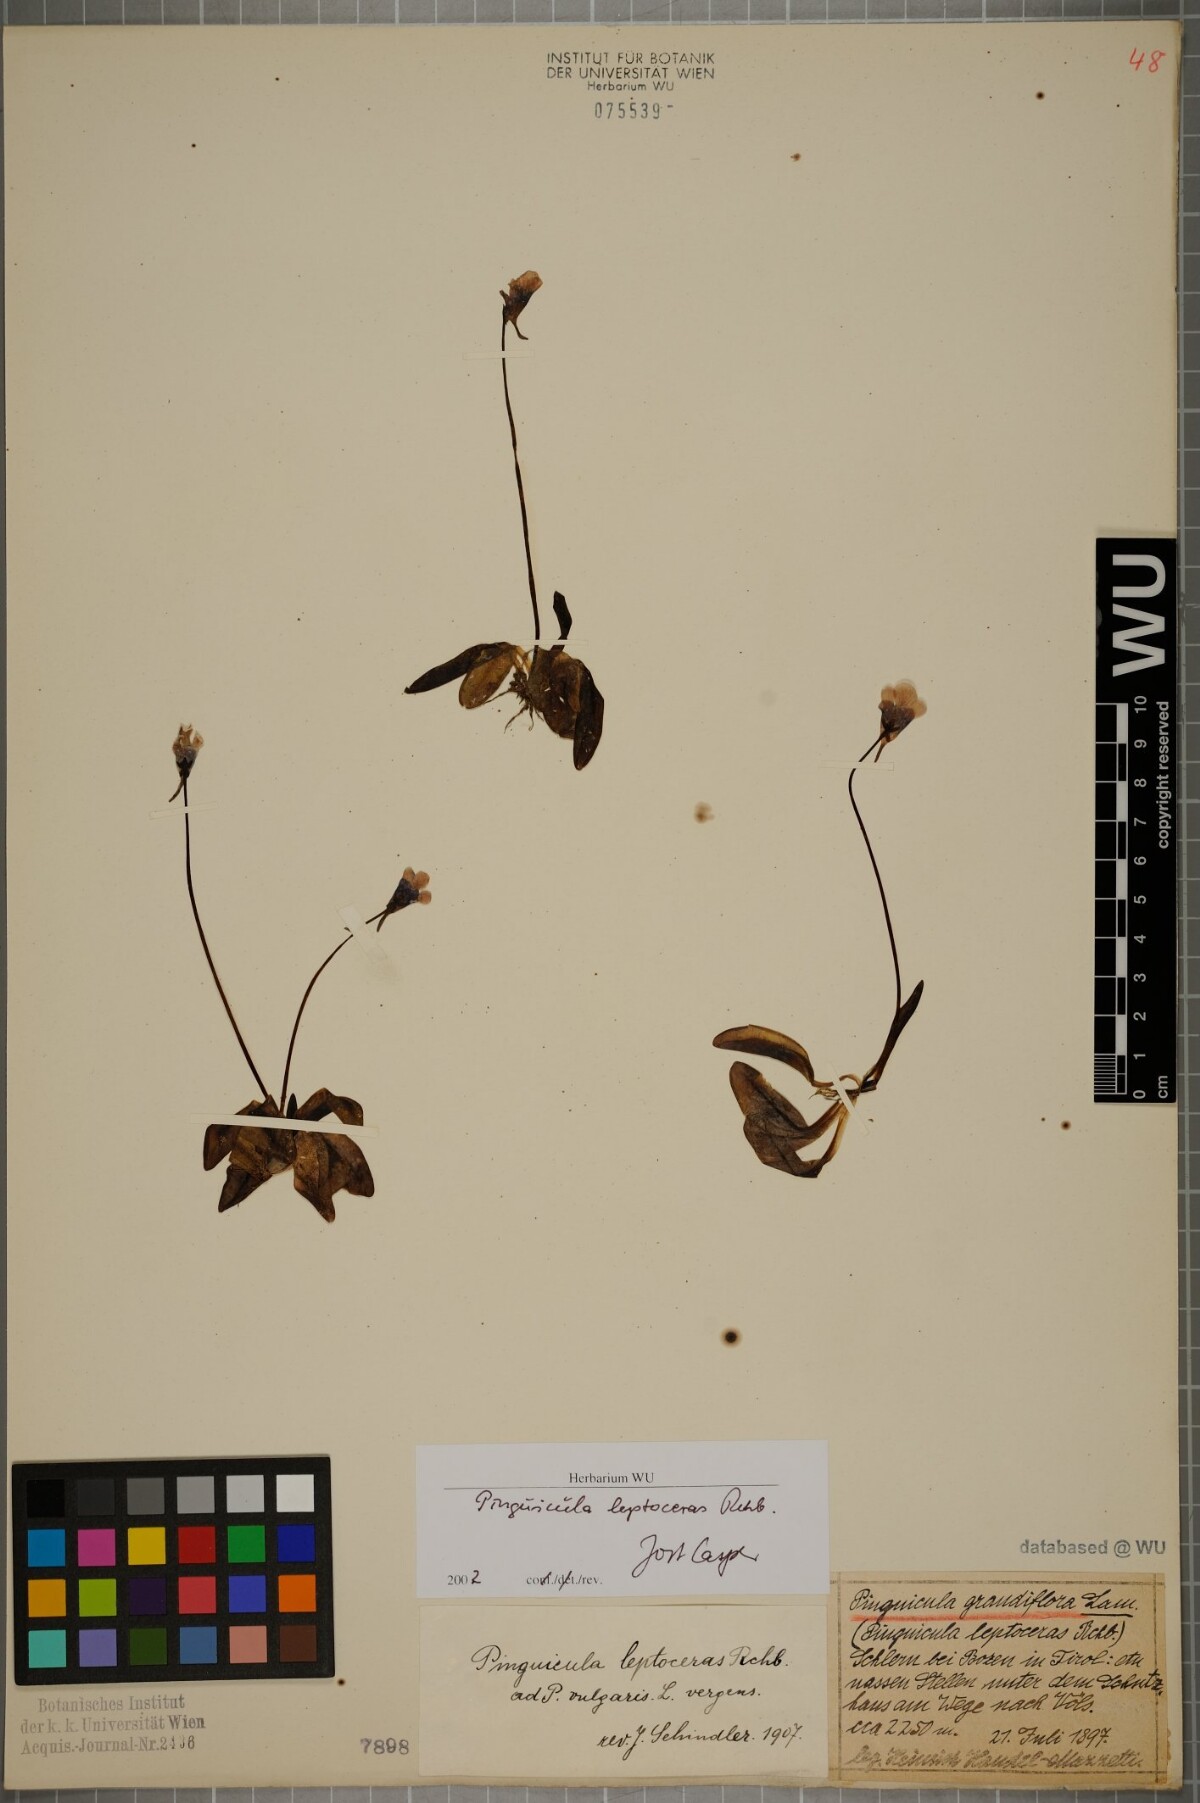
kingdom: Plantae
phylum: Tracheophyta
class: Magnoliopsida
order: Lamiales
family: Lentibulariaceae
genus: Pinguicula
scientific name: Pinguicula leptoceras
